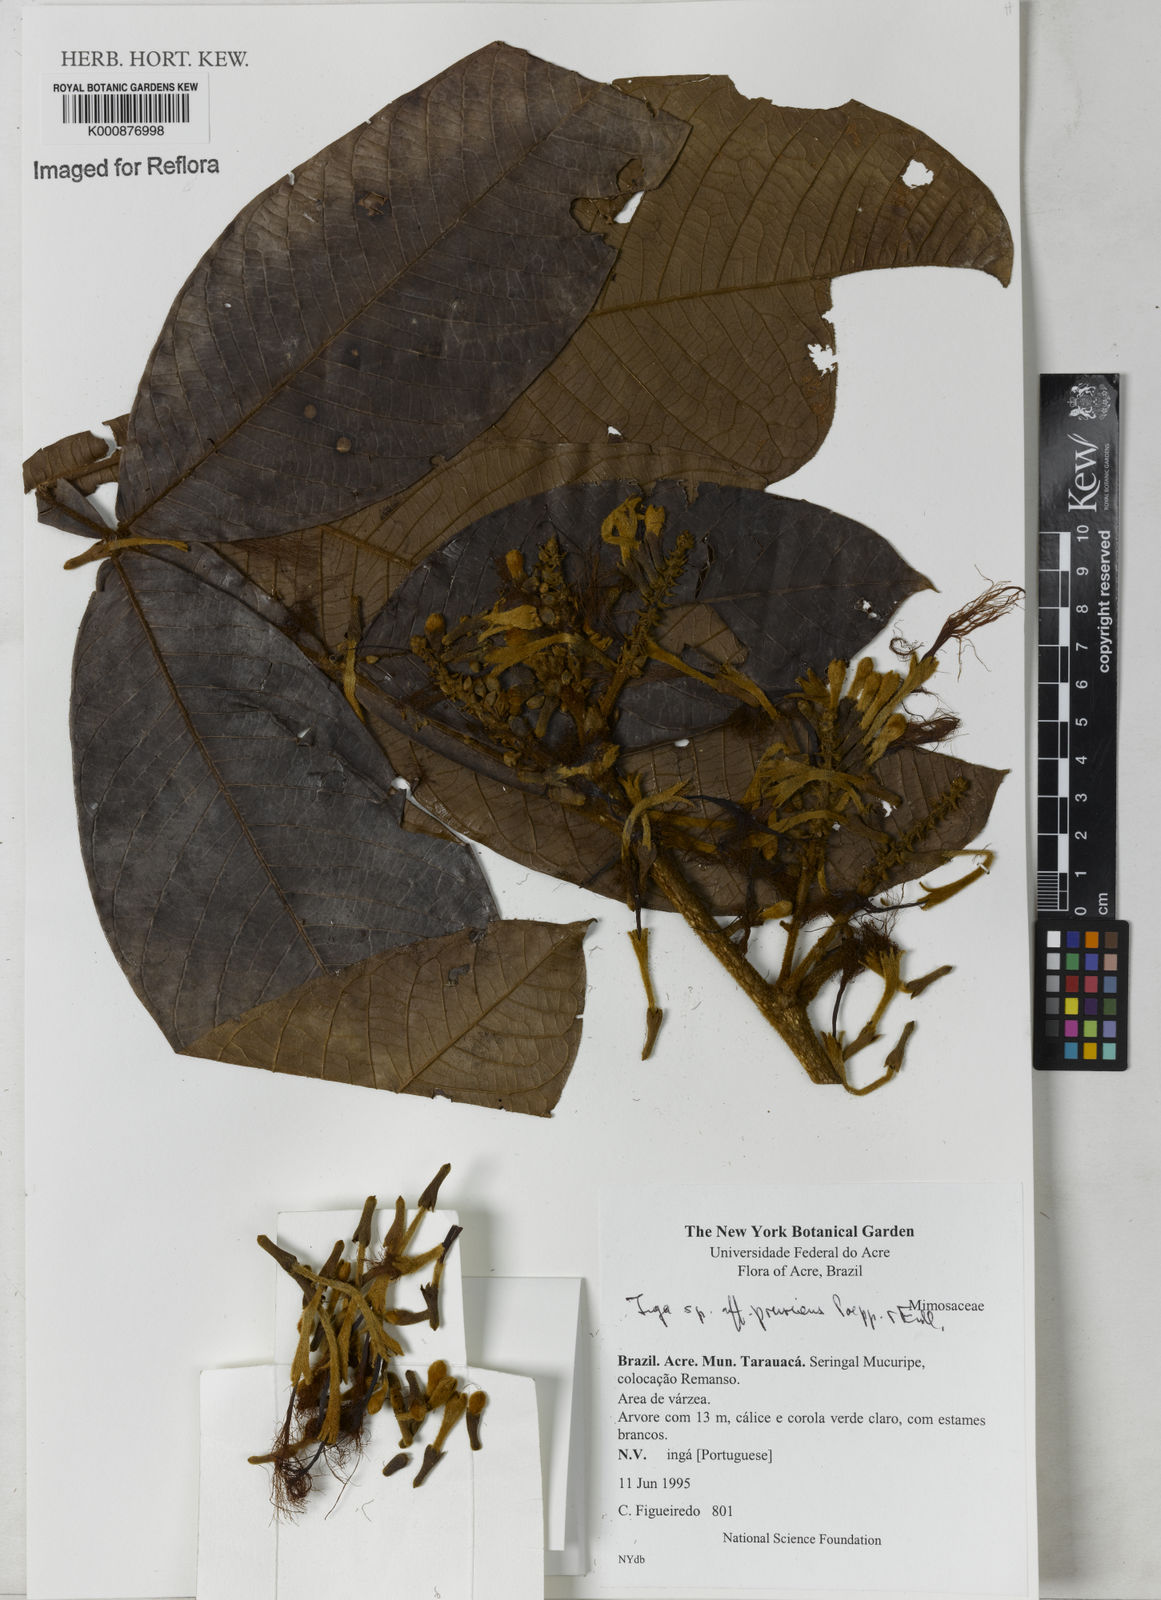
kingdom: Plantae
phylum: Tracheophyta
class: Magnoliopsida
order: Fabales
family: Fabaceae
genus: Inga
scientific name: Inga pruriens
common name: Howler monkey inga
